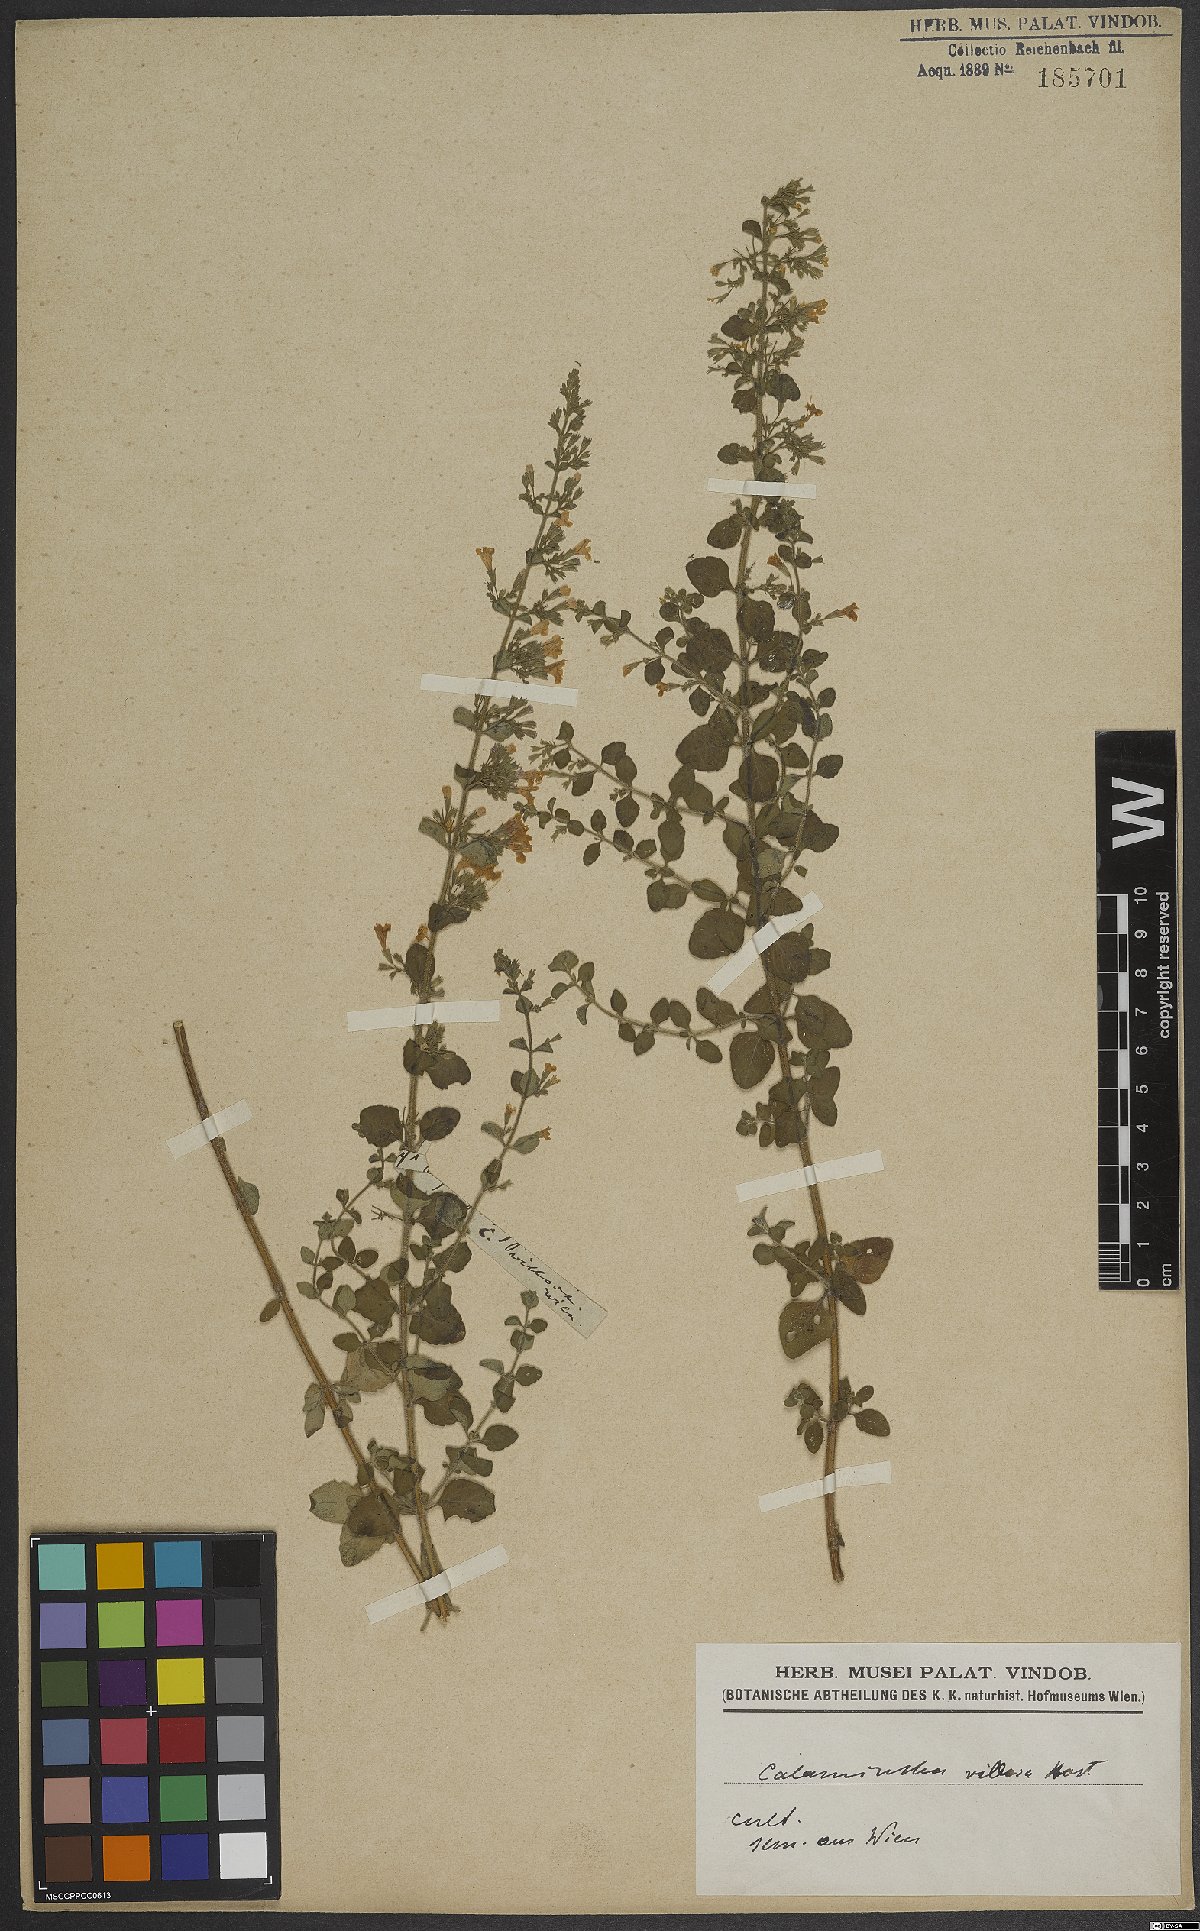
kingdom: Plantae
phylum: Tracheophyta
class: Magnoliopsida
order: Lamiales
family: Lamiaceae
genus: Clinopodium
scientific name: Clinopodium acinos
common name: Basil thyme
